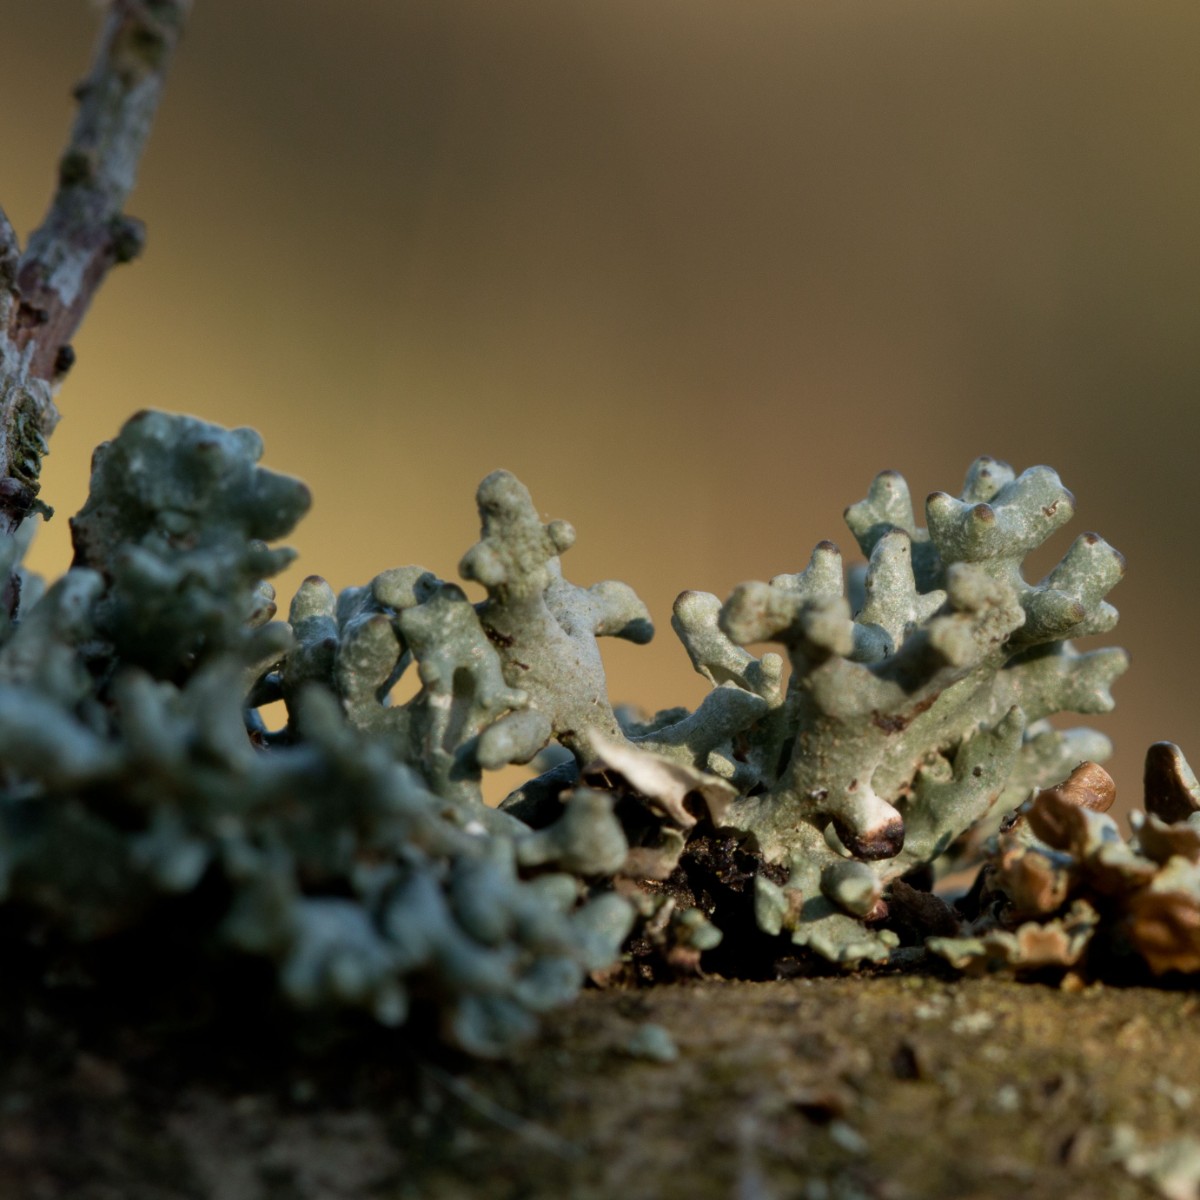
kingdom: Fungi
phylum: Ascomycota
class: Lecanoromycetes
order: Lecanorales
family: Parmeliaceae
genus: Hypogymnia
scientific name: Hypogymnia tubulosa
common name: finger-kvistlav
